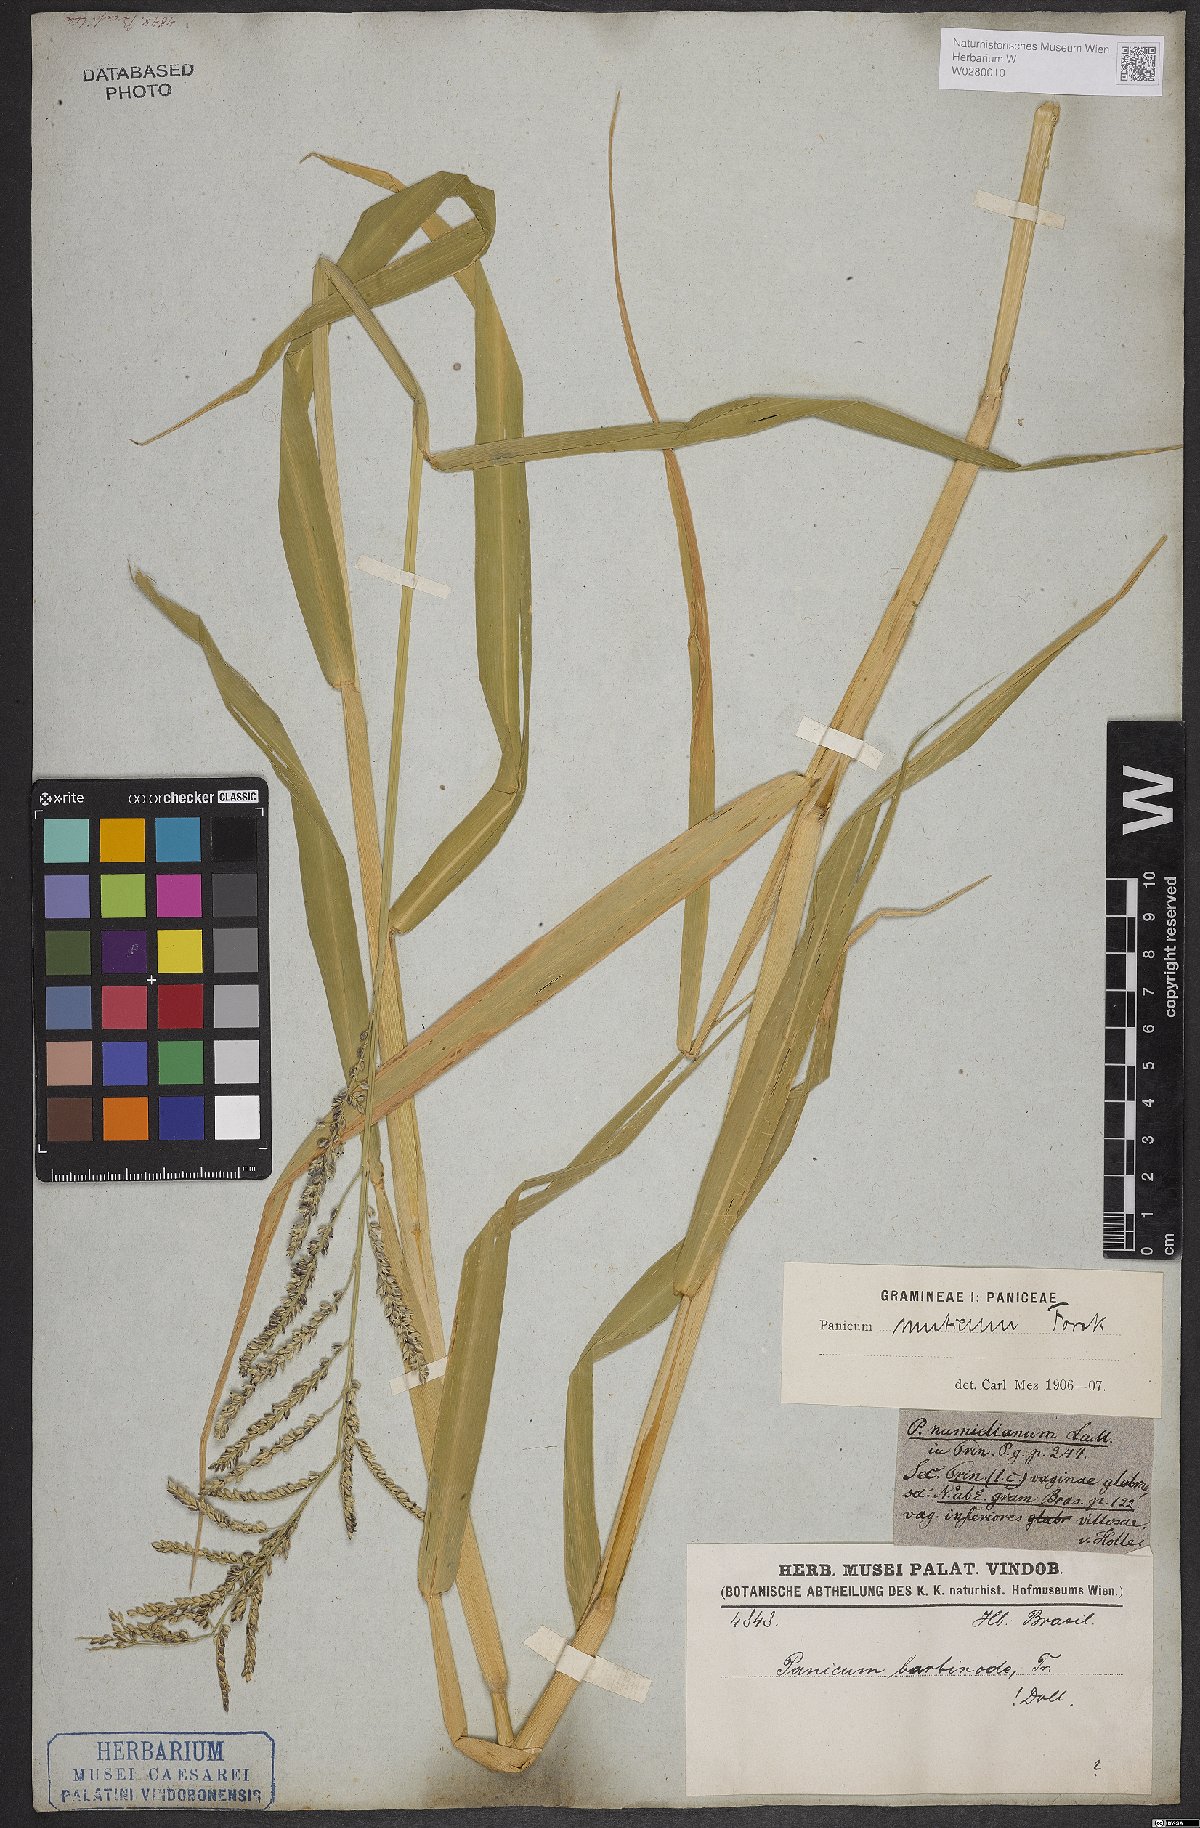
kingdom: Plantae
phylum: Tracheophyta
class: Liliopsida
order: Poales
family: Poaceae
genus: Urochloa
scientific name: Urochloa mutica
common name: Para grass
